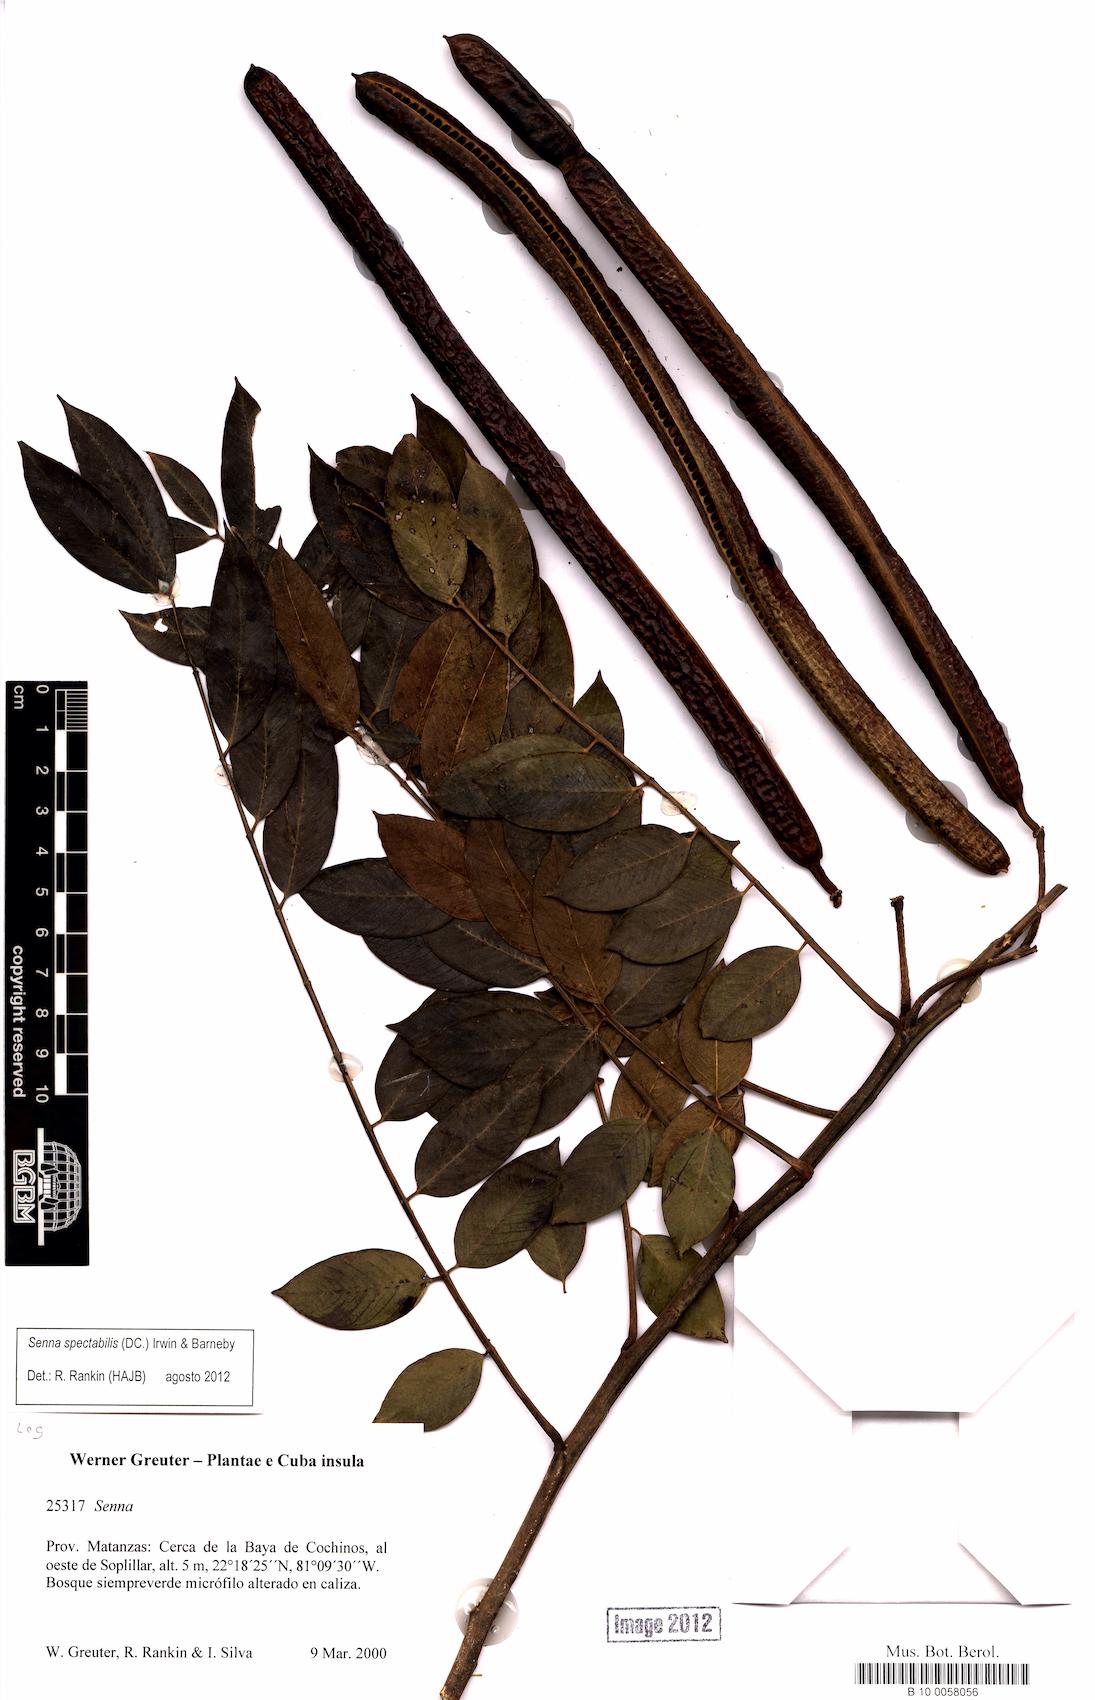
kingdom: Plantae
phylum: Tracheophyta
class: Magnoliopsida
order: Fabales
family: Fabaceae
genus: Senna
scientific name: Senna spectabilis
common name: Casia amarilla
